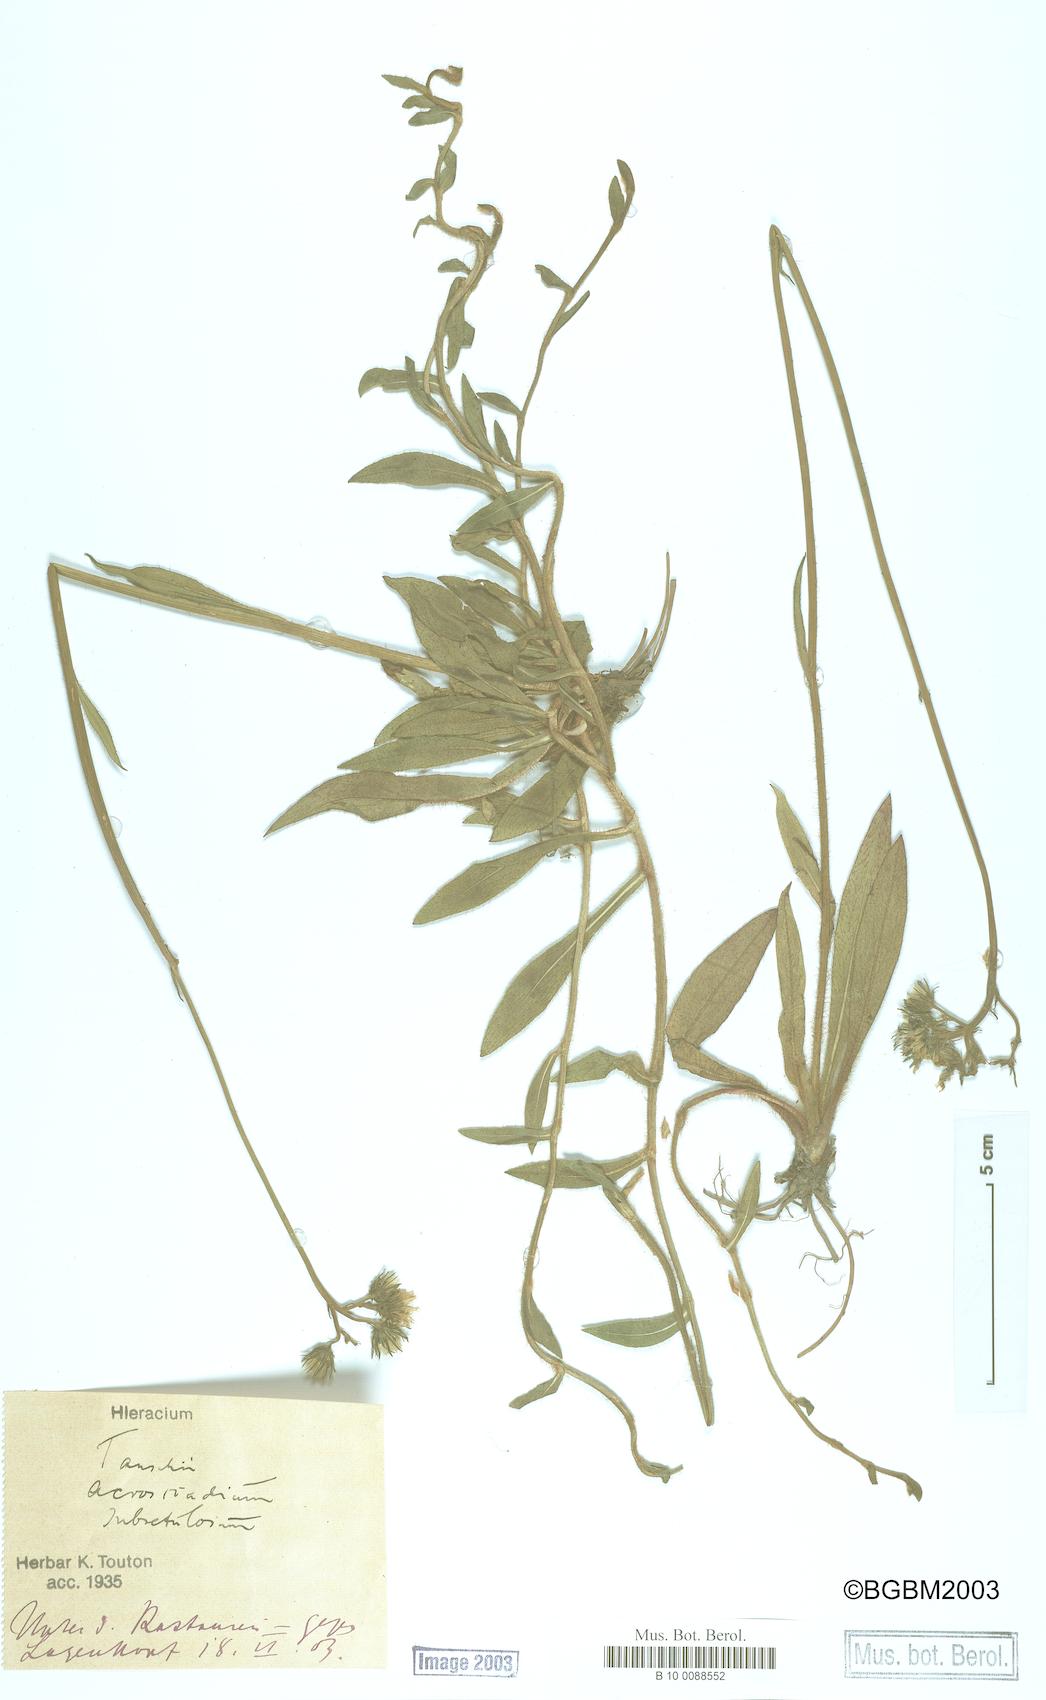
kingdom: Plantae
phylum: Tracheophyta
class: Magnoliopsida
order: Asterales
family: Asteraceae
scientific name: Asteraceae
